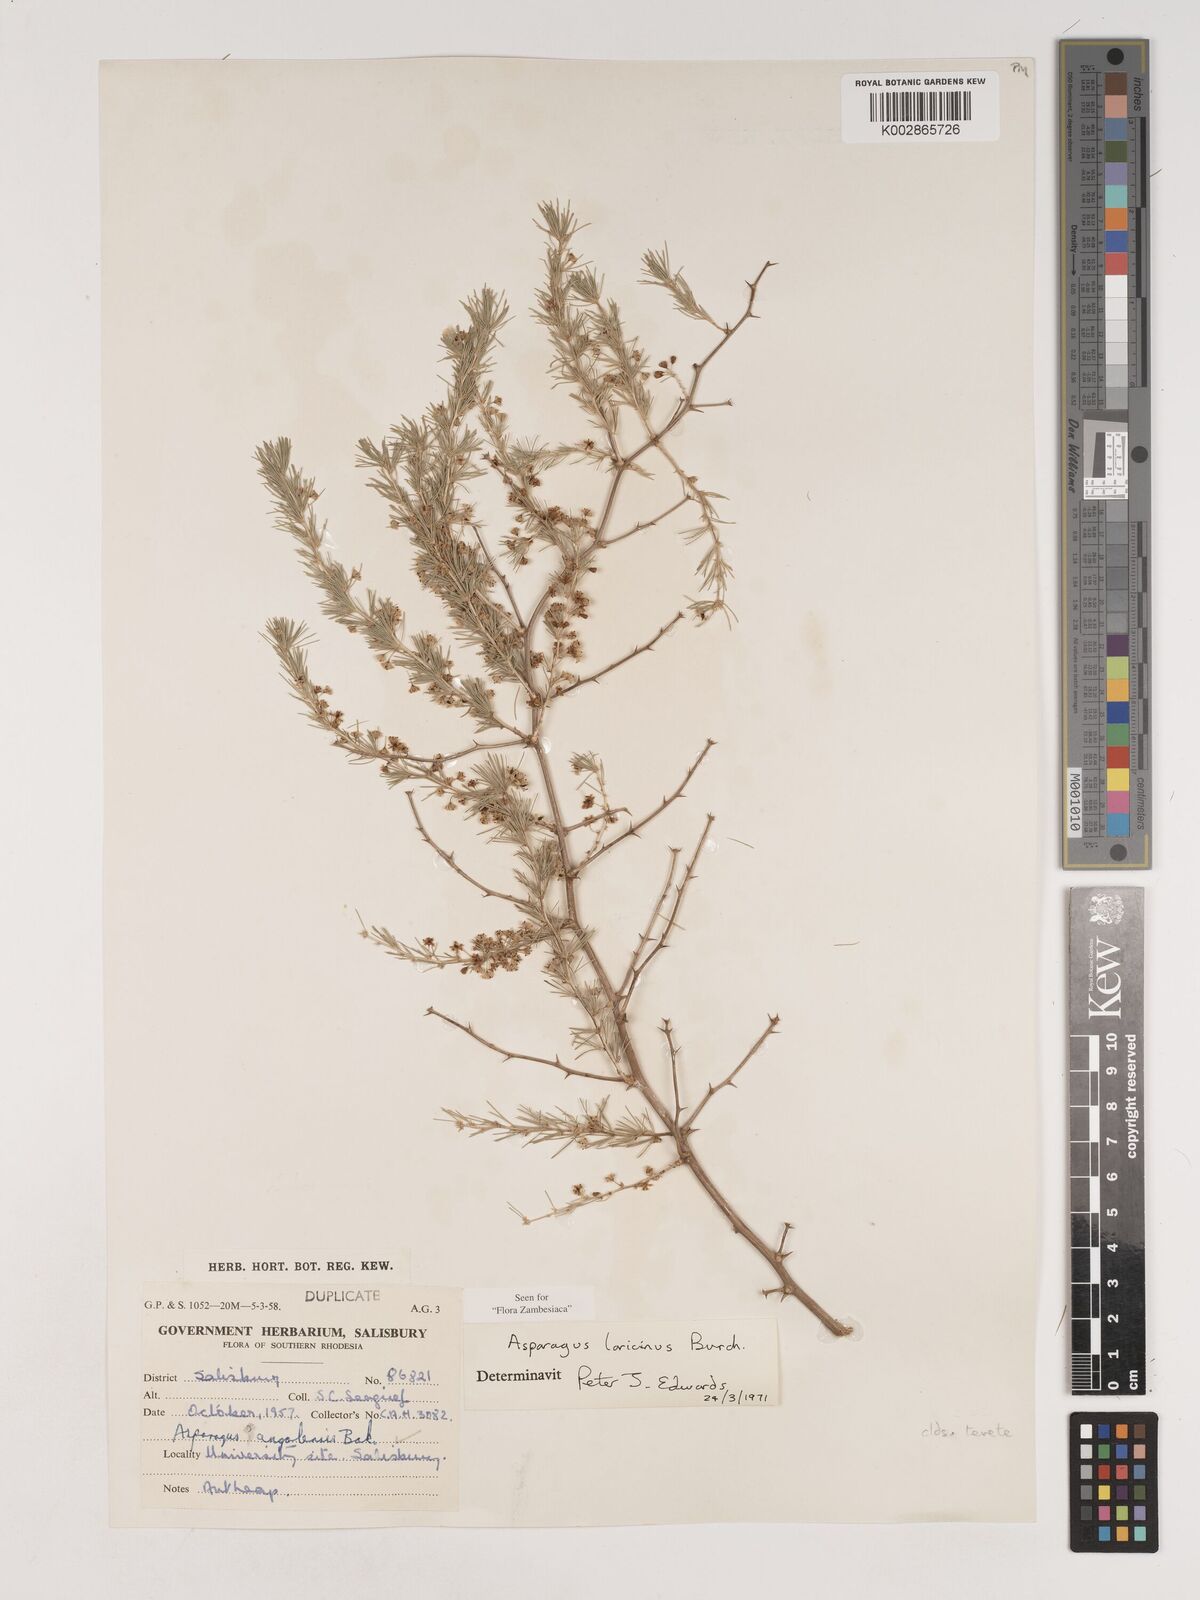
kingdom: Plantae
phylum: Tracheophyta
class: Liliopsida
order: Asparagales
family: Asparagaceae
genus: Asparagus
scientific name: Asparagus laricinus
